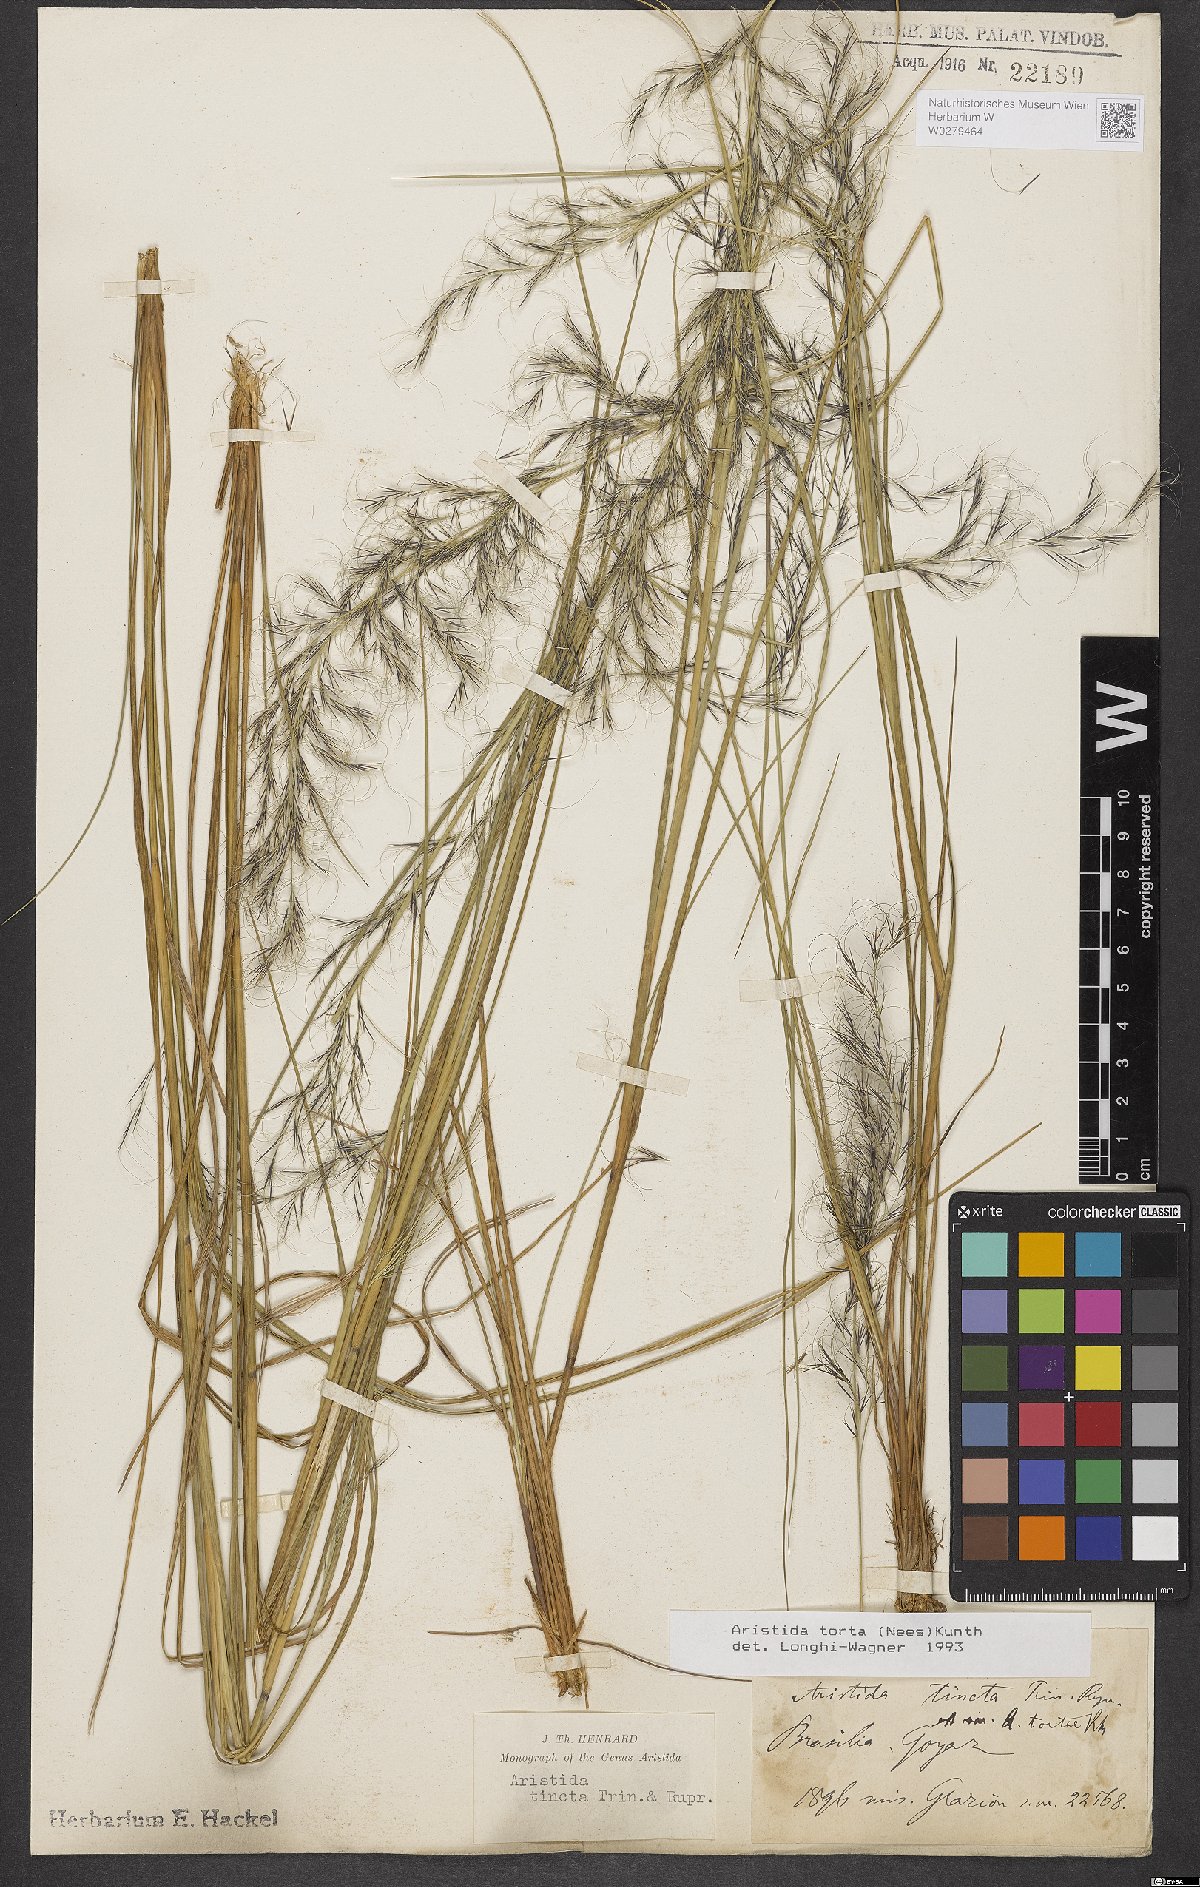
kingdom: Plantae
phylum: Tracheophyta
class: Liliopsida
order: Poales
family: Poaceae
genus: Aristida
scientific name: Aristida torta
